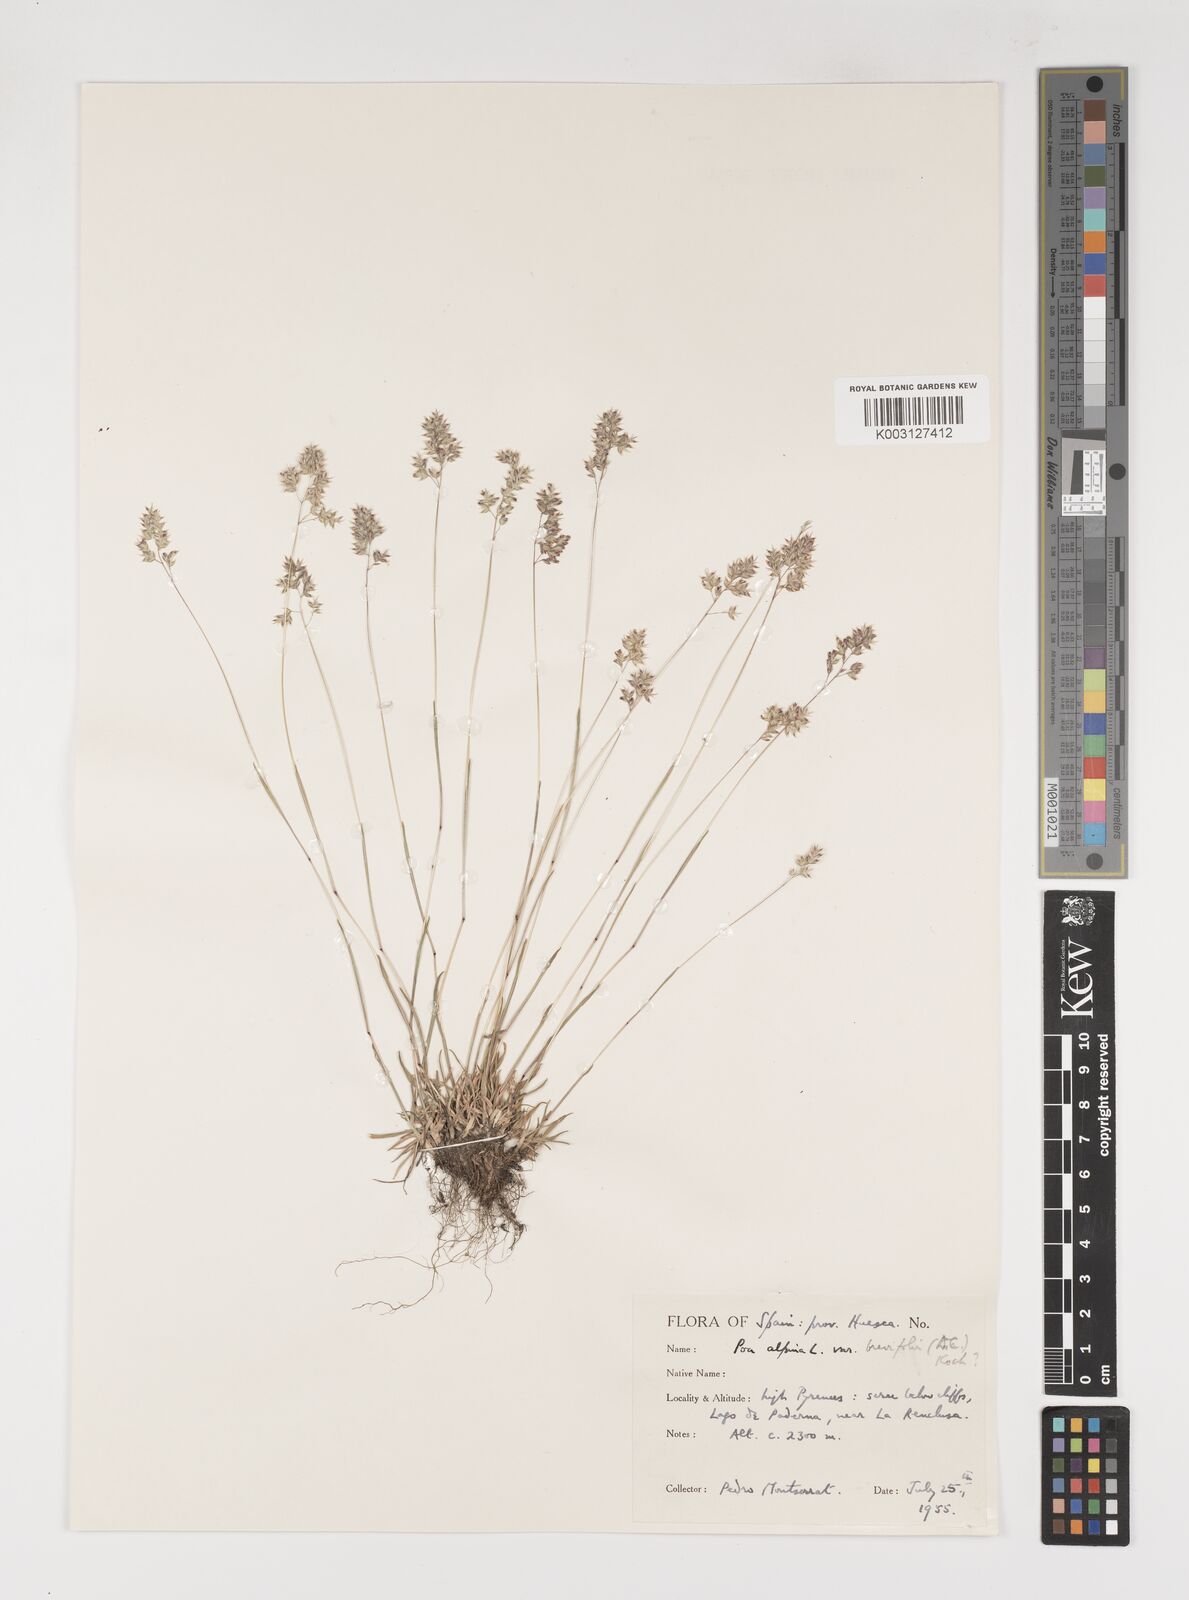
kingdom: Plantae
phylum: Tracheophyta
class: Liliopsida
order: Poales
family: Poaceae
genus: Poa
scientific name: Poa alpina
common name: Alpine bluegrass
